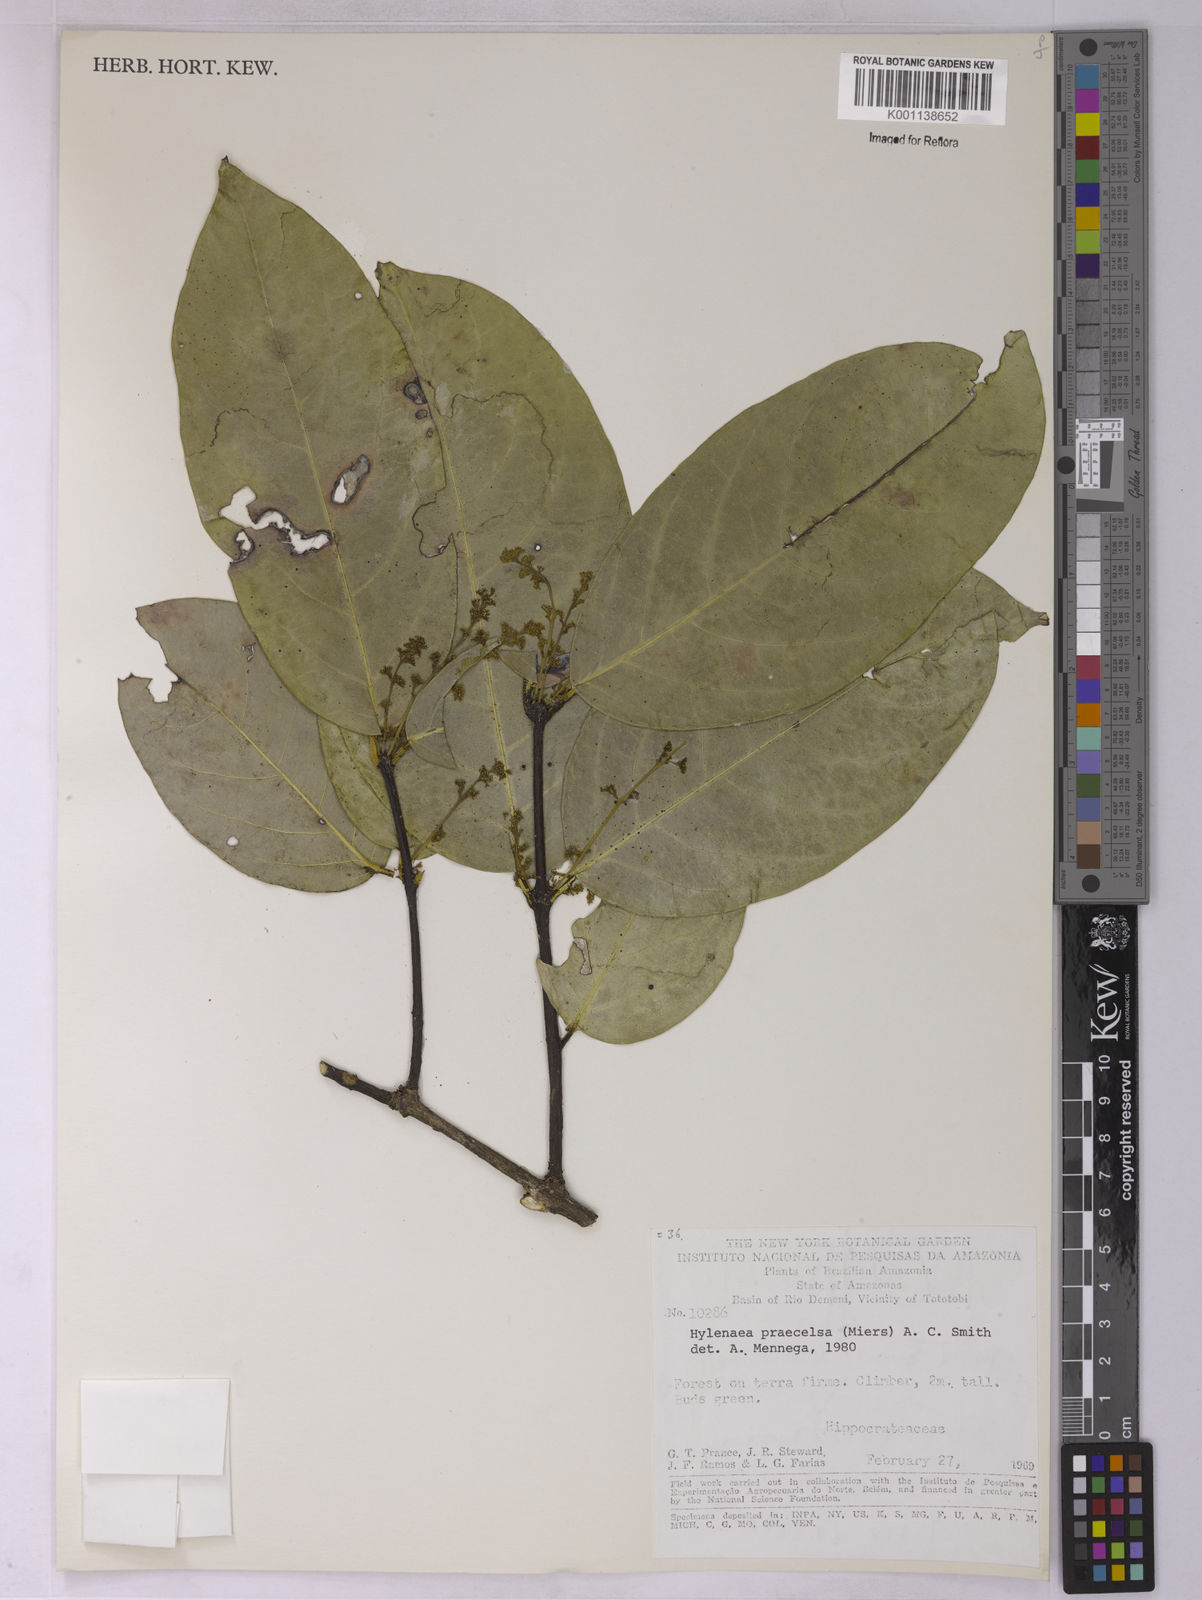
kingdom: Plantae
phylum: Tracheophyta
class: Magnoliopsida
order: Celastrales
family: Celastraceae
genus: Hylenaea
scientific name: Hylenaea praecelsa
